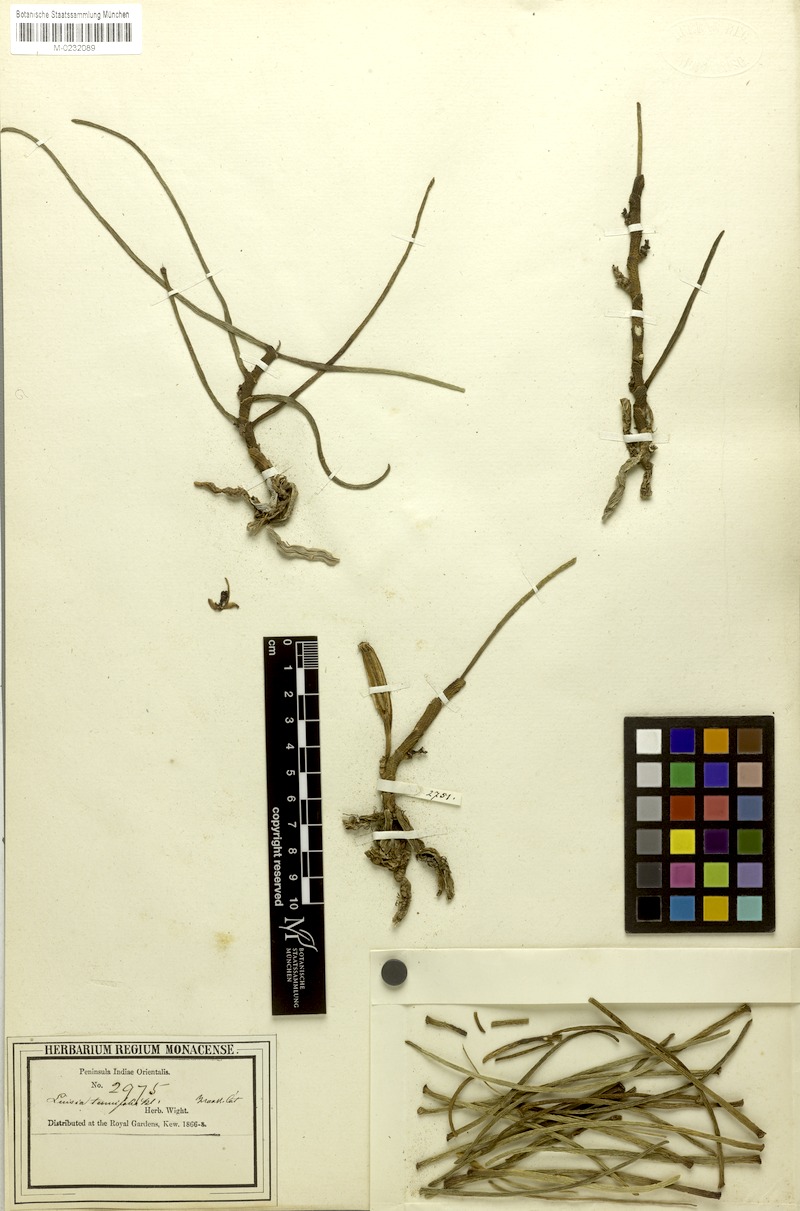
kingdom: Plantae
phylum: Tracheophyta
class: Liliopsida
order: Asparagales
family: Orchidaceae
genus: Luisia
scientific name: Luisia tenuifolia
